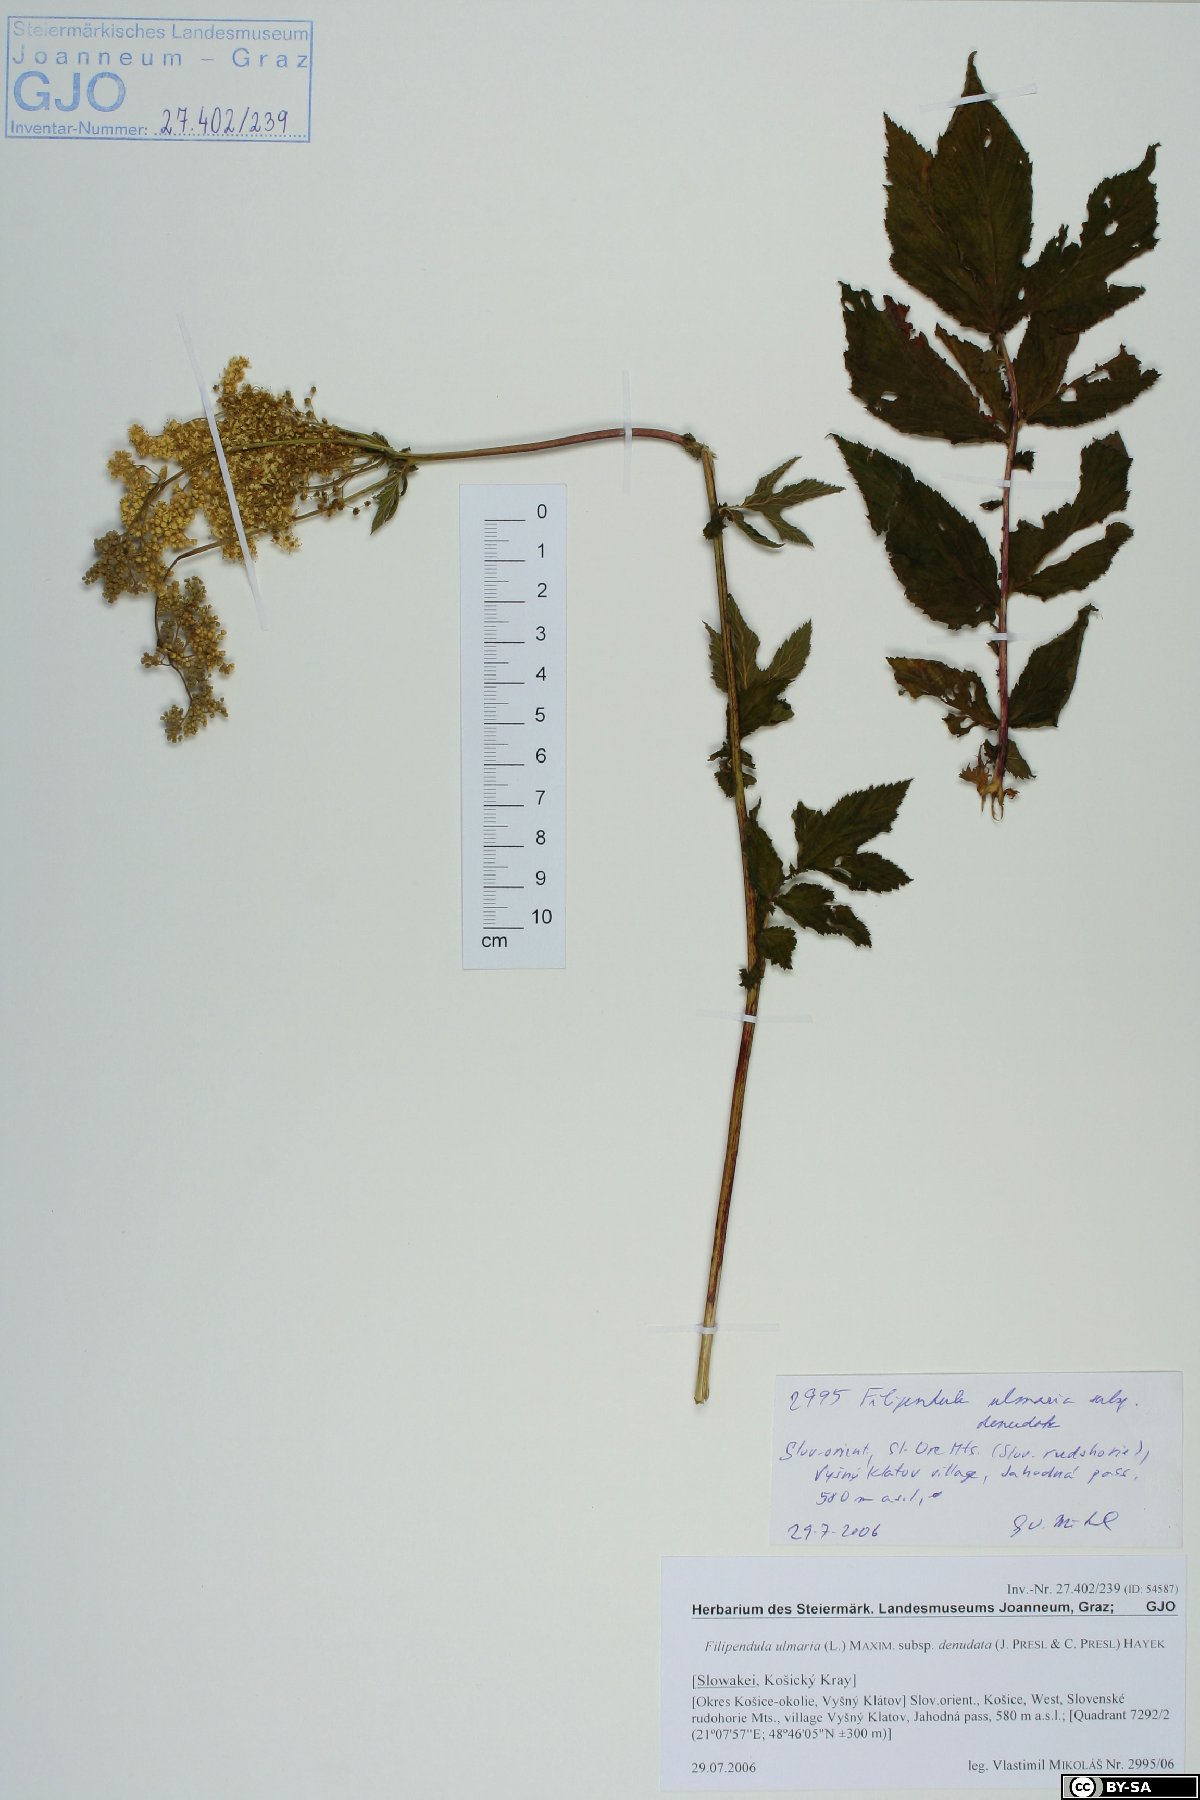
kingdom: Plantae
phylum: Tracheophyta
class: Magnoliopsida
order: Rosales
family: Rosaceae
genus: Filipendula
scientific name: Filipendula ulmaria
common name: Meadowsweet
